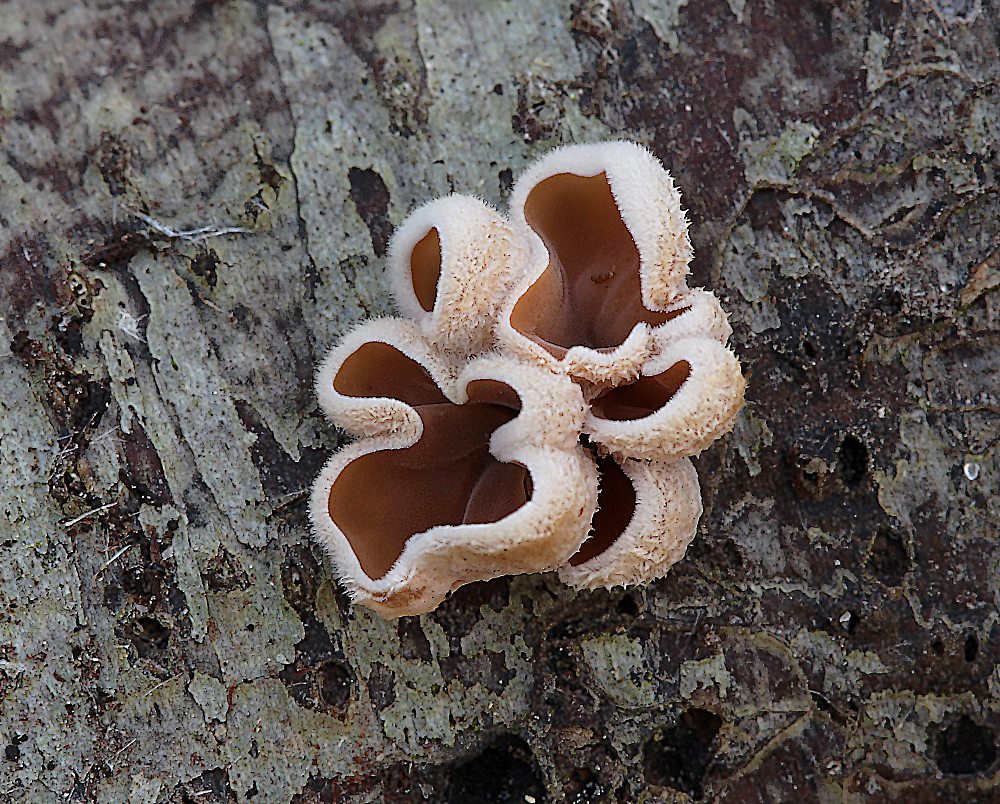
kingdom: Fungi
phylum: Basidiomycota
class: Agaricomycetes
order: Agaricales
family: Schizophyllaceae
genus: Schizophyllum
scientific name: Schizophyllum amplum
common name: poppel-hængeøre
